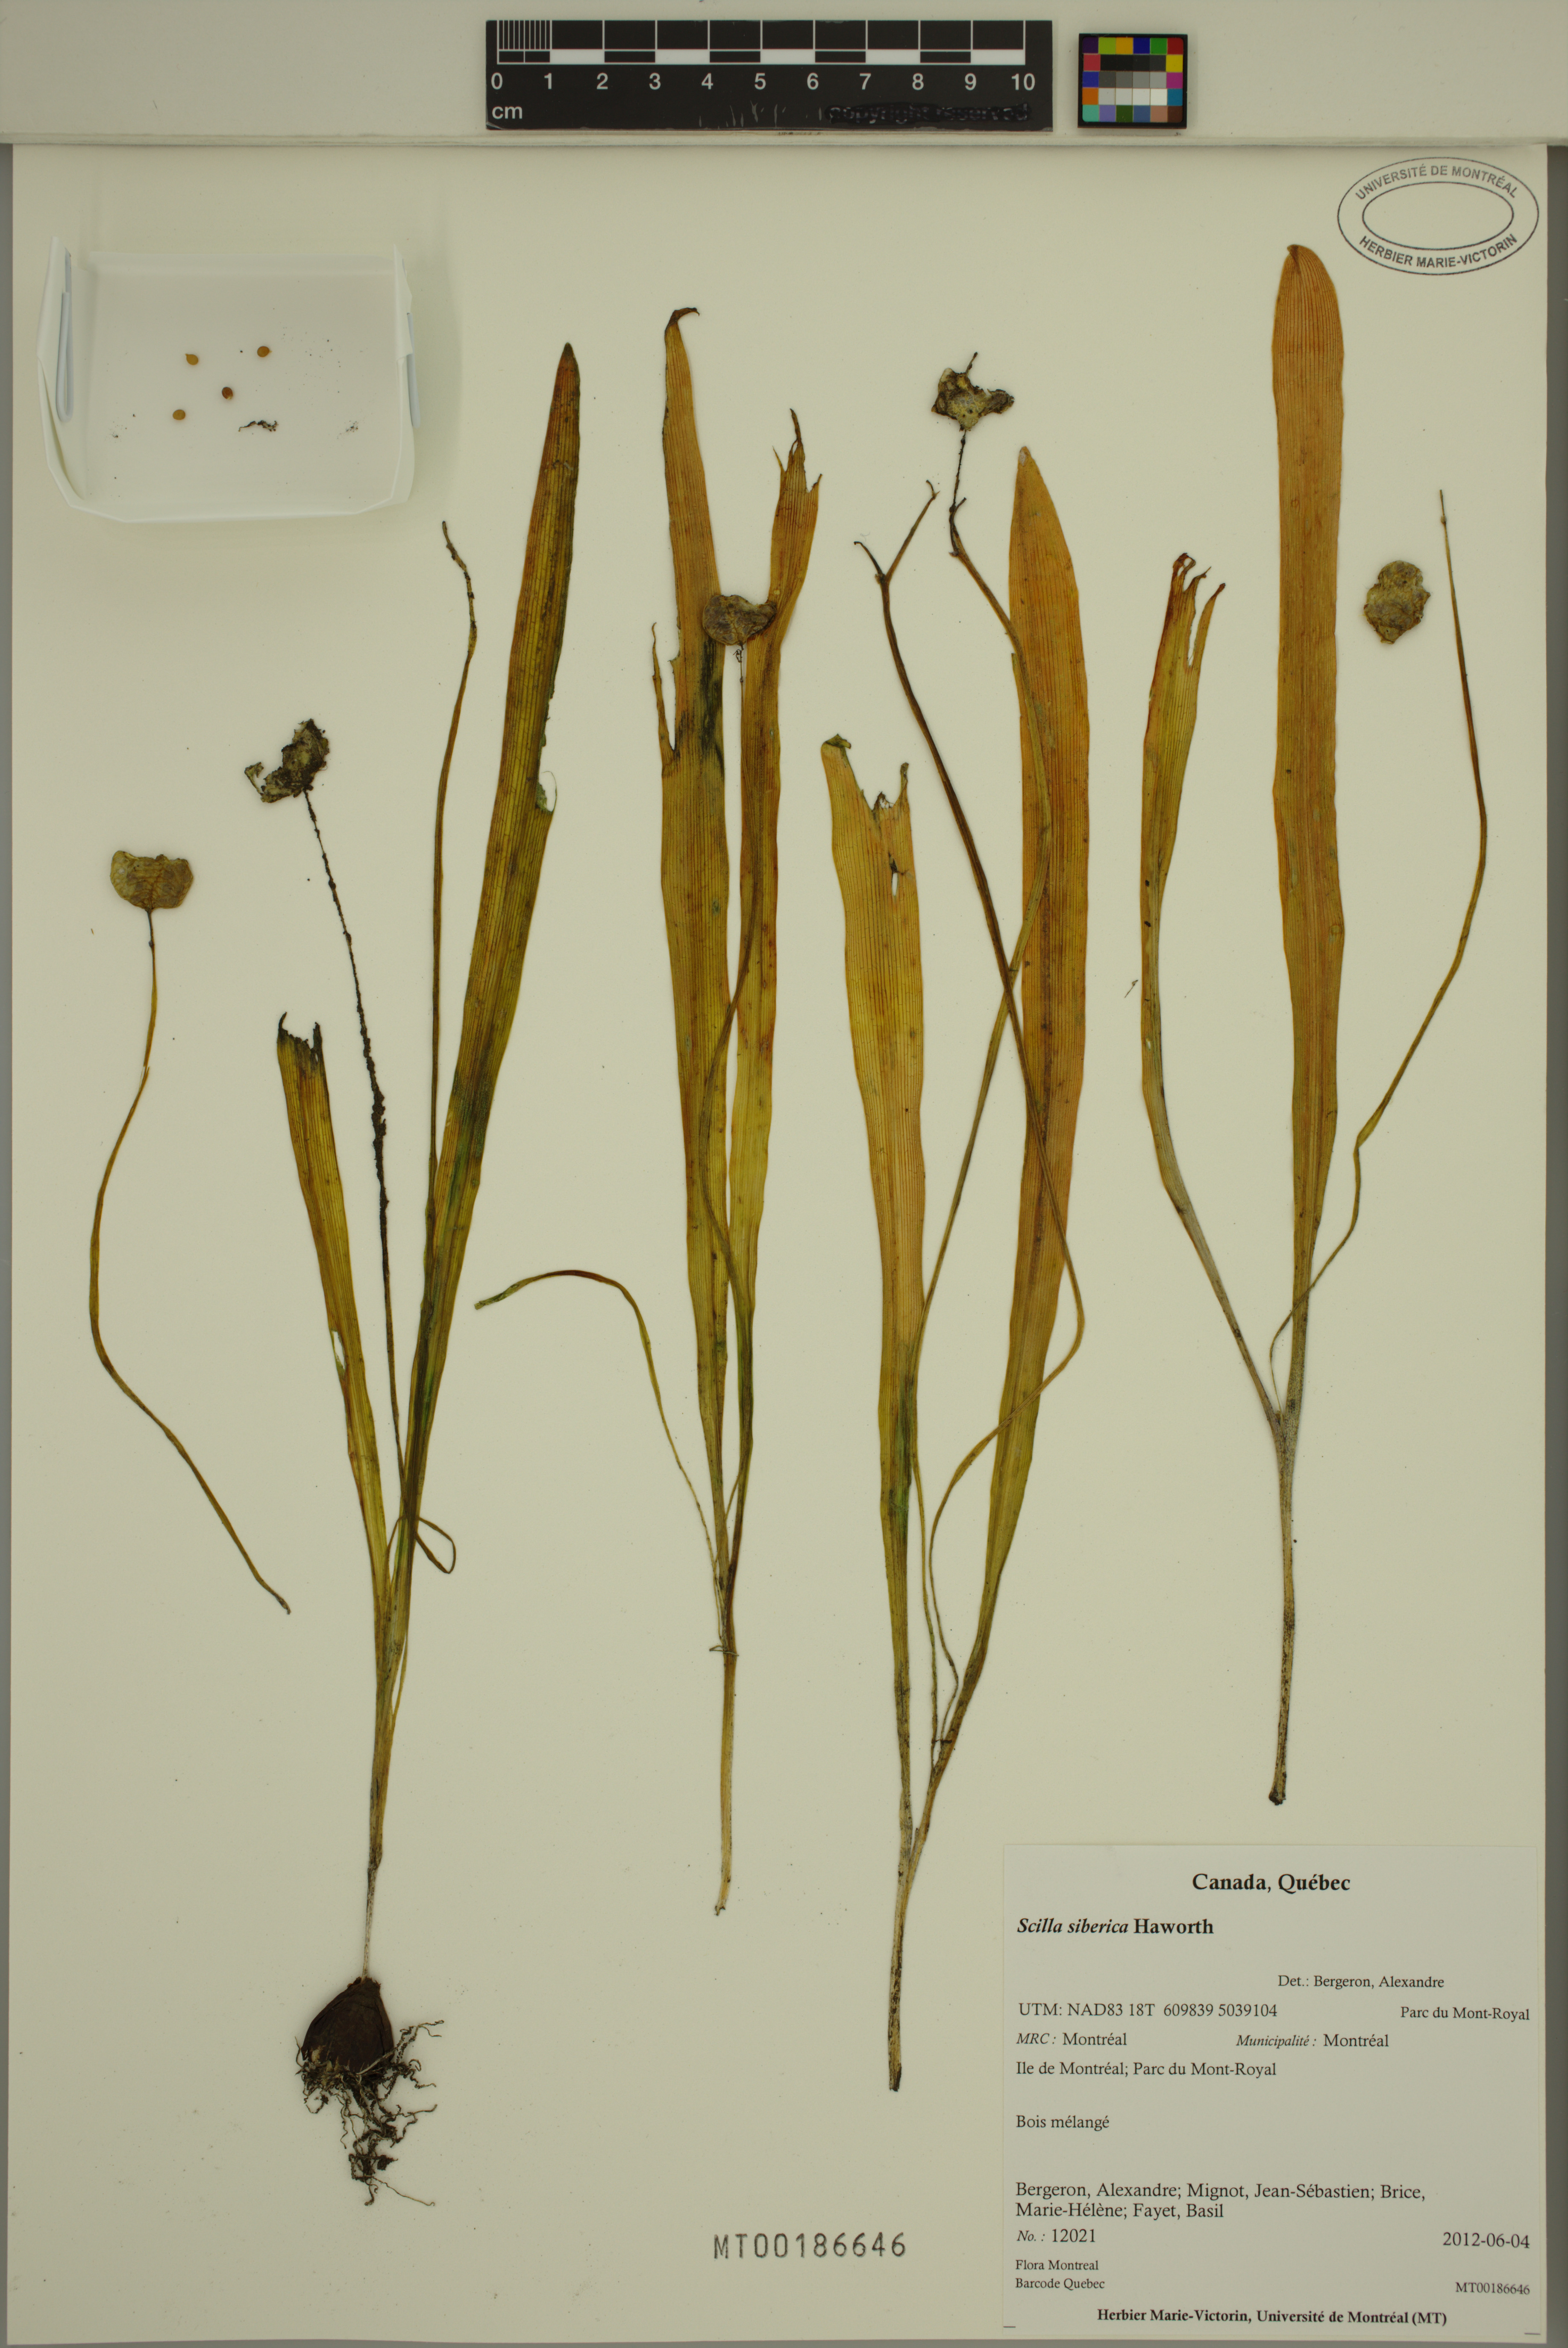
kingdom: Plantae
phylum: Tracheophyta
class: Liliopsida
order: Asparagales
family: Asparagaceae
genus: Scilla
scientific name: Scilla siberica
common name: Siberian squill
